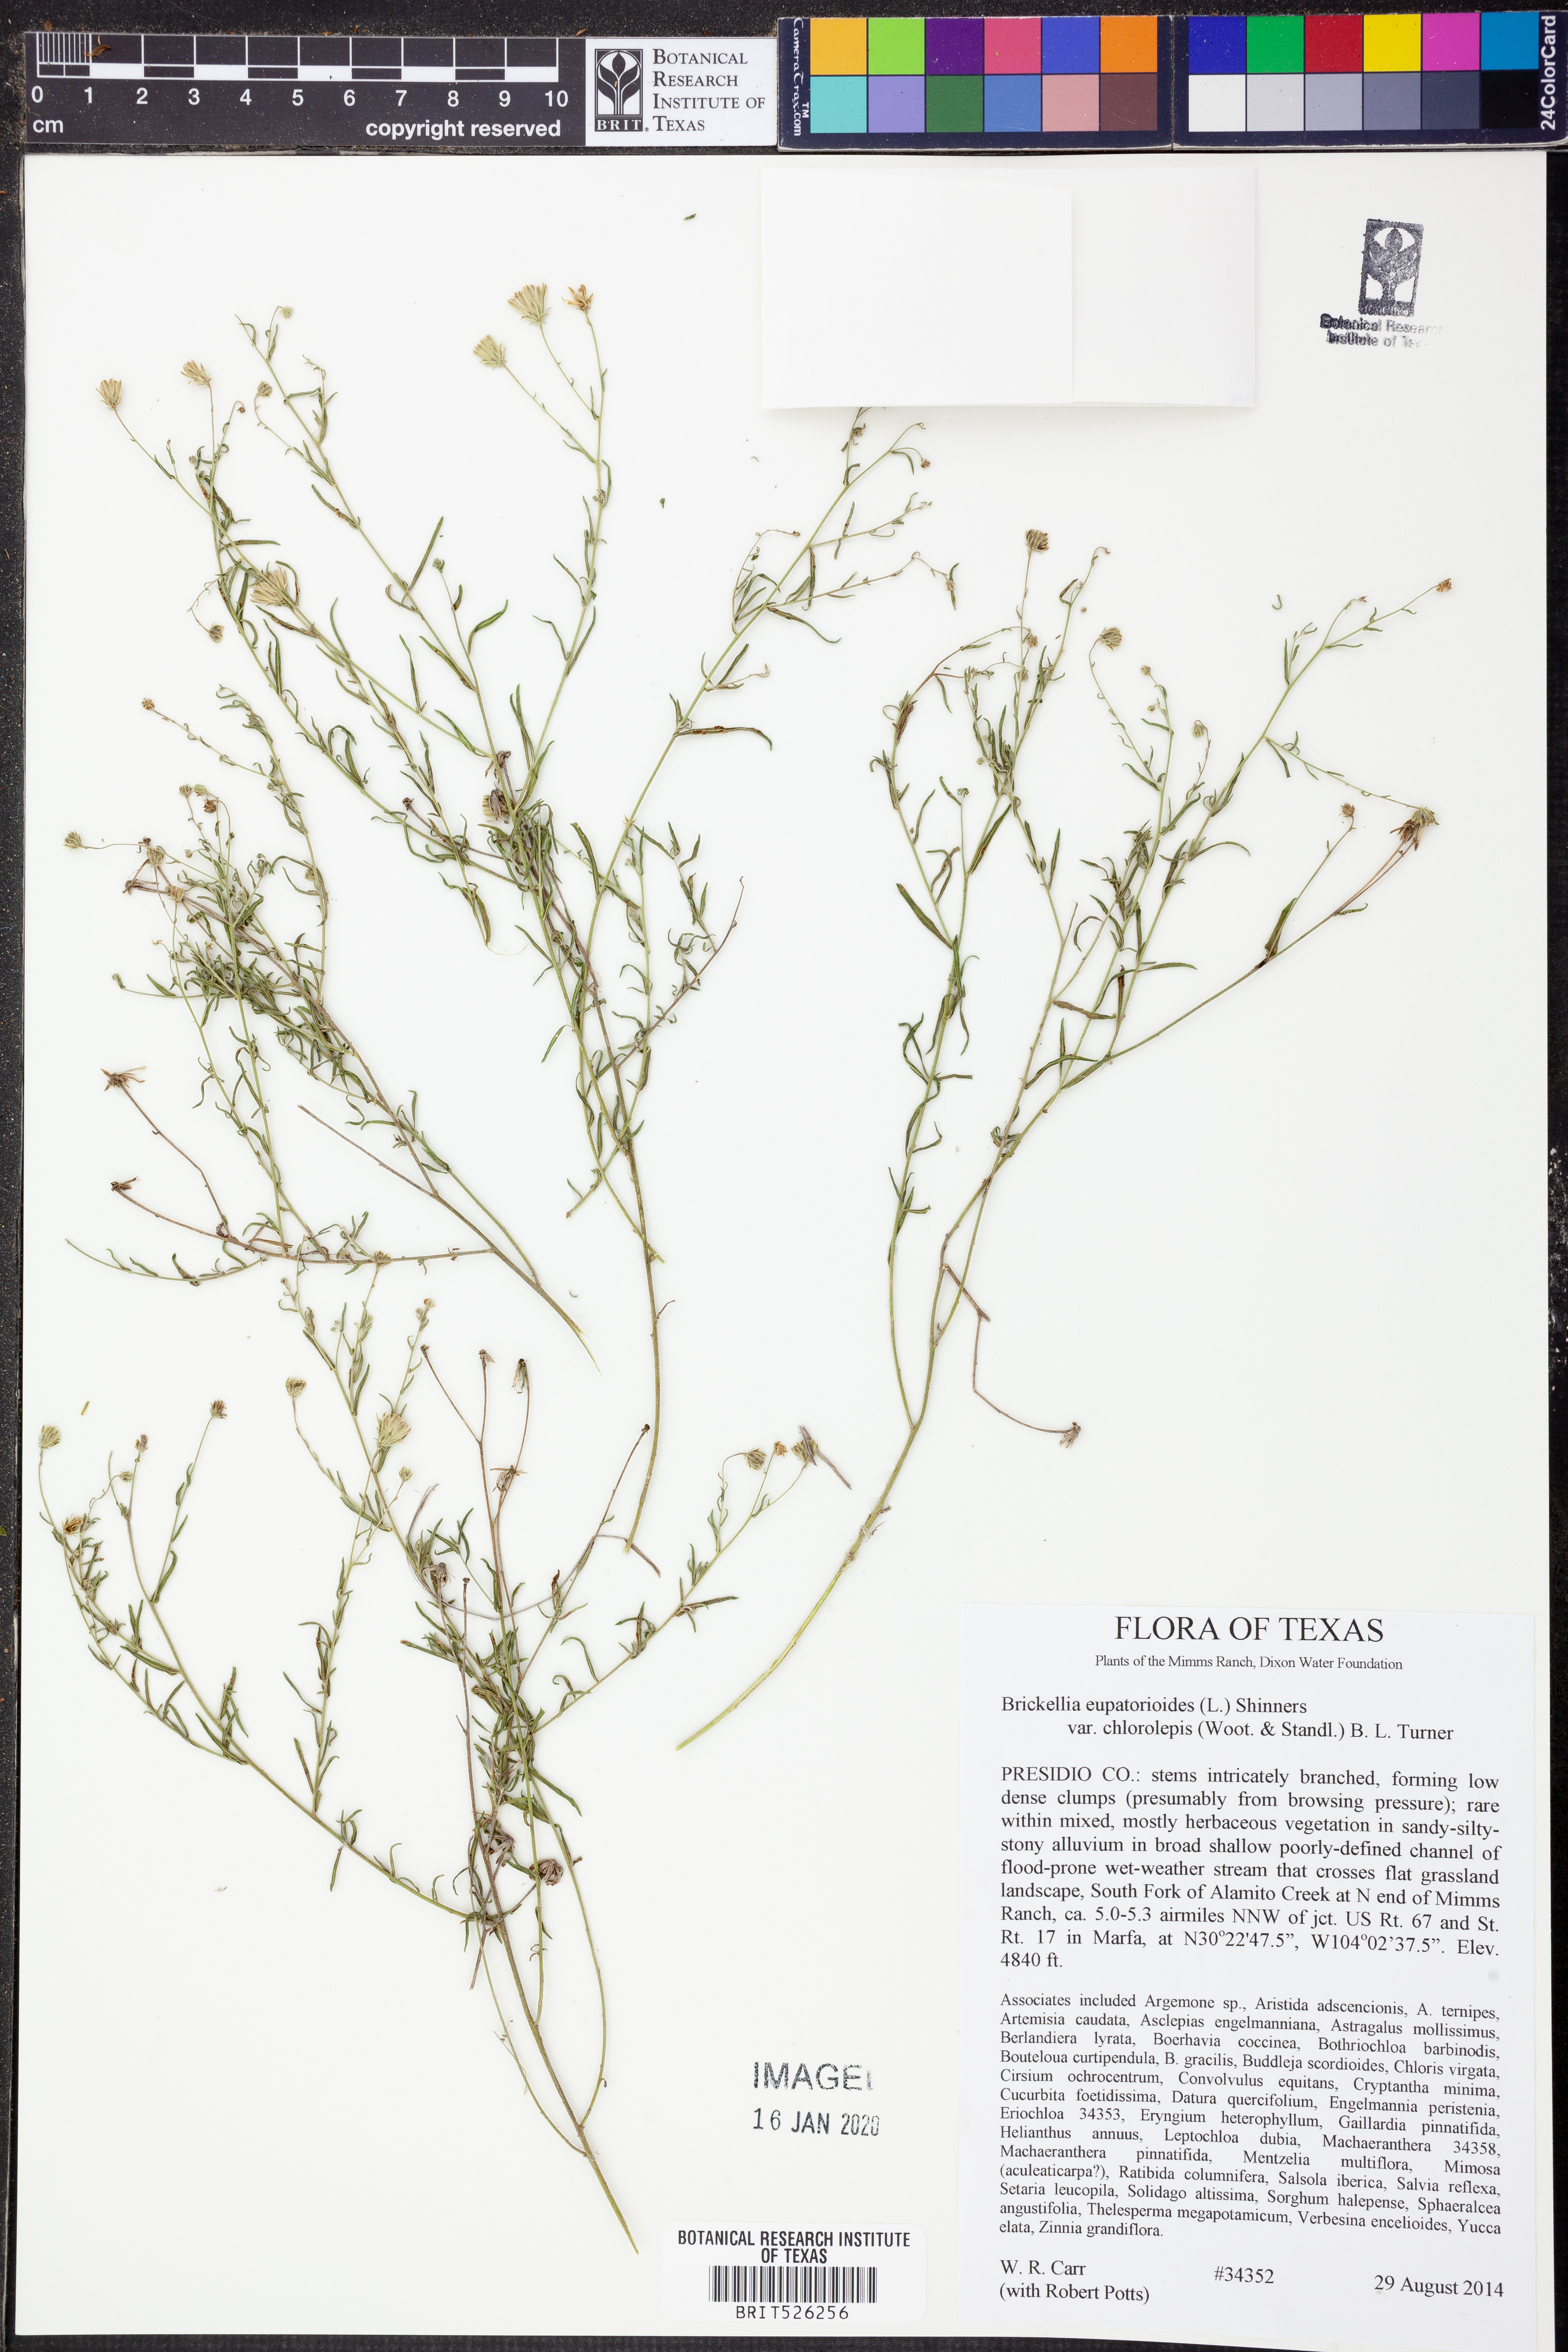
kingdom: Plantae
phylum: Tracheophyta
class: Magnoliopsida
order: Asterales
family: Asteraceae
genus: Brickellia
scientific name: Brickellia leptophylla
